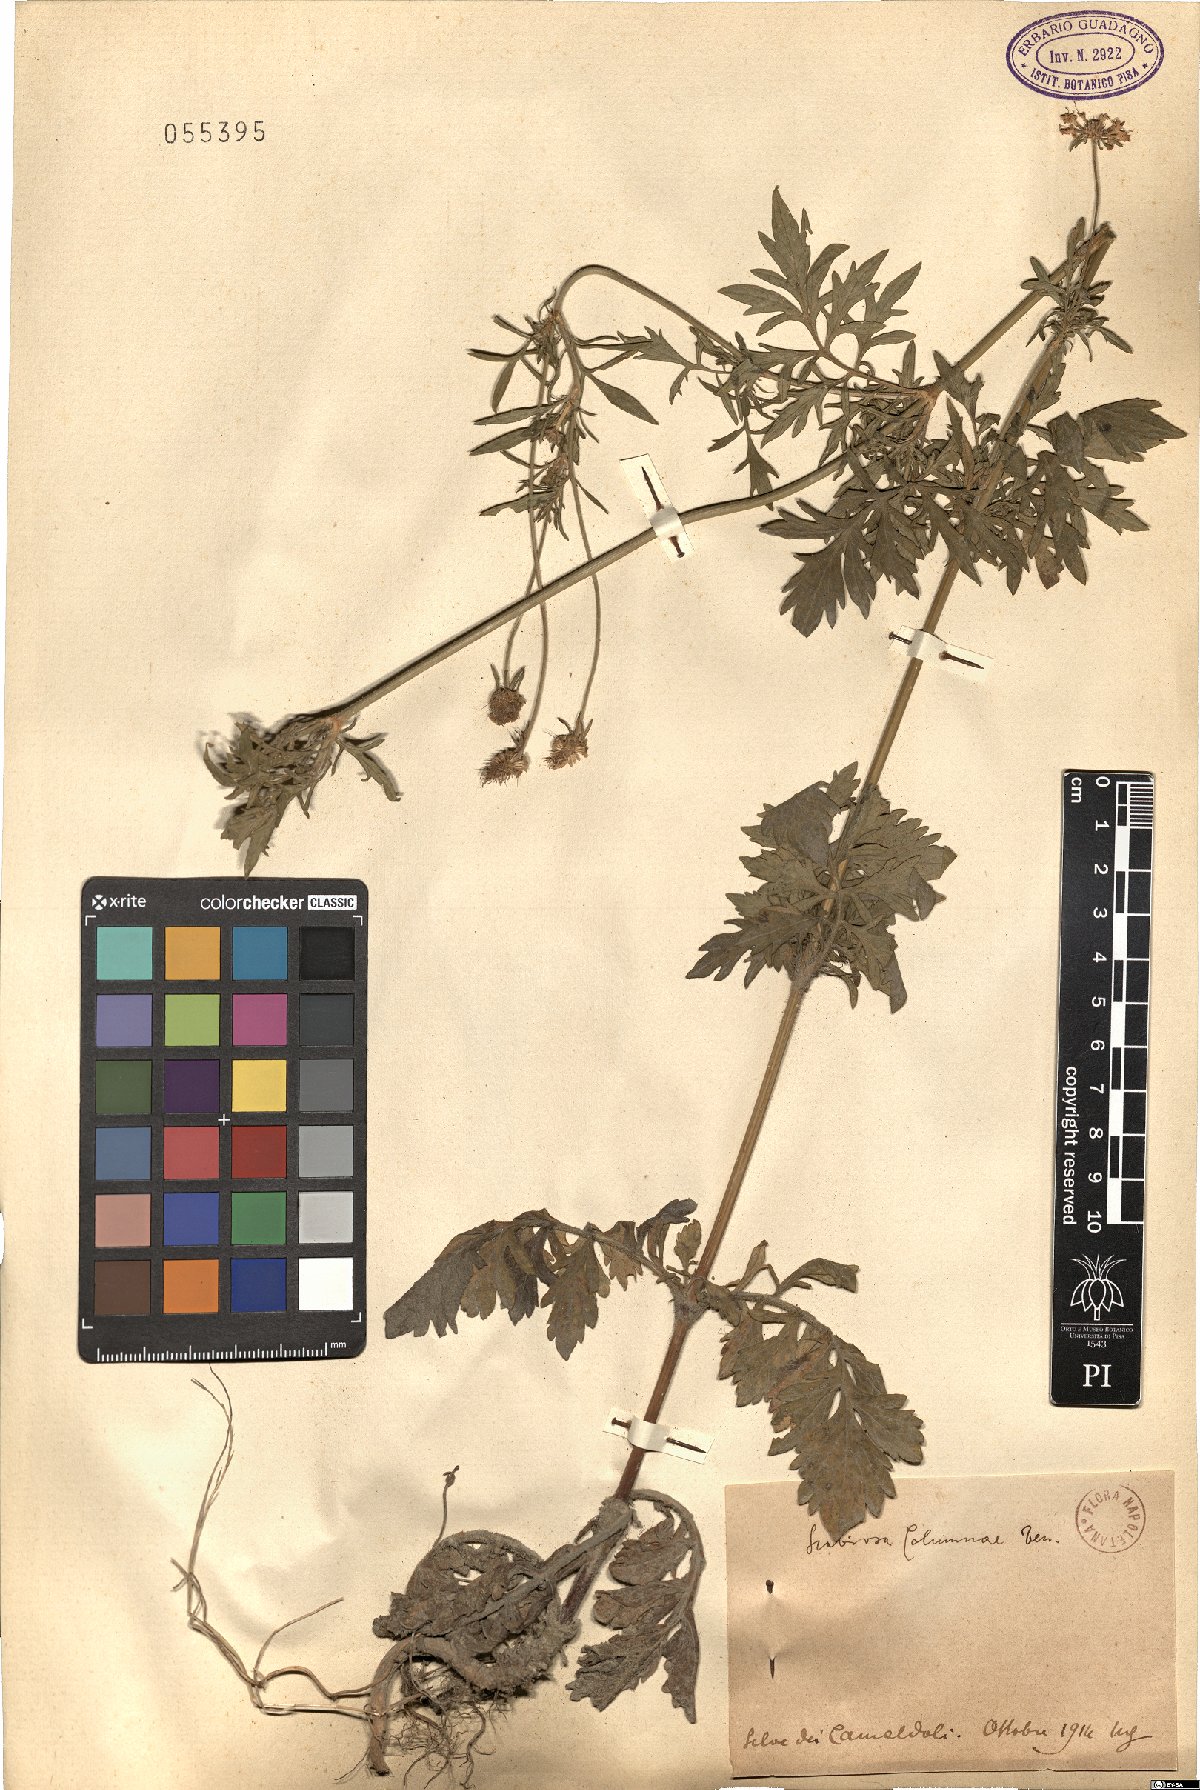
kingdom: Plantae
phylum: Tracheophyta
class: Magnoliopsida
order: Dipsacales
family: Caprifoliaceae
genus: Scabiosa
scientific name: Scabiosa holosericea
